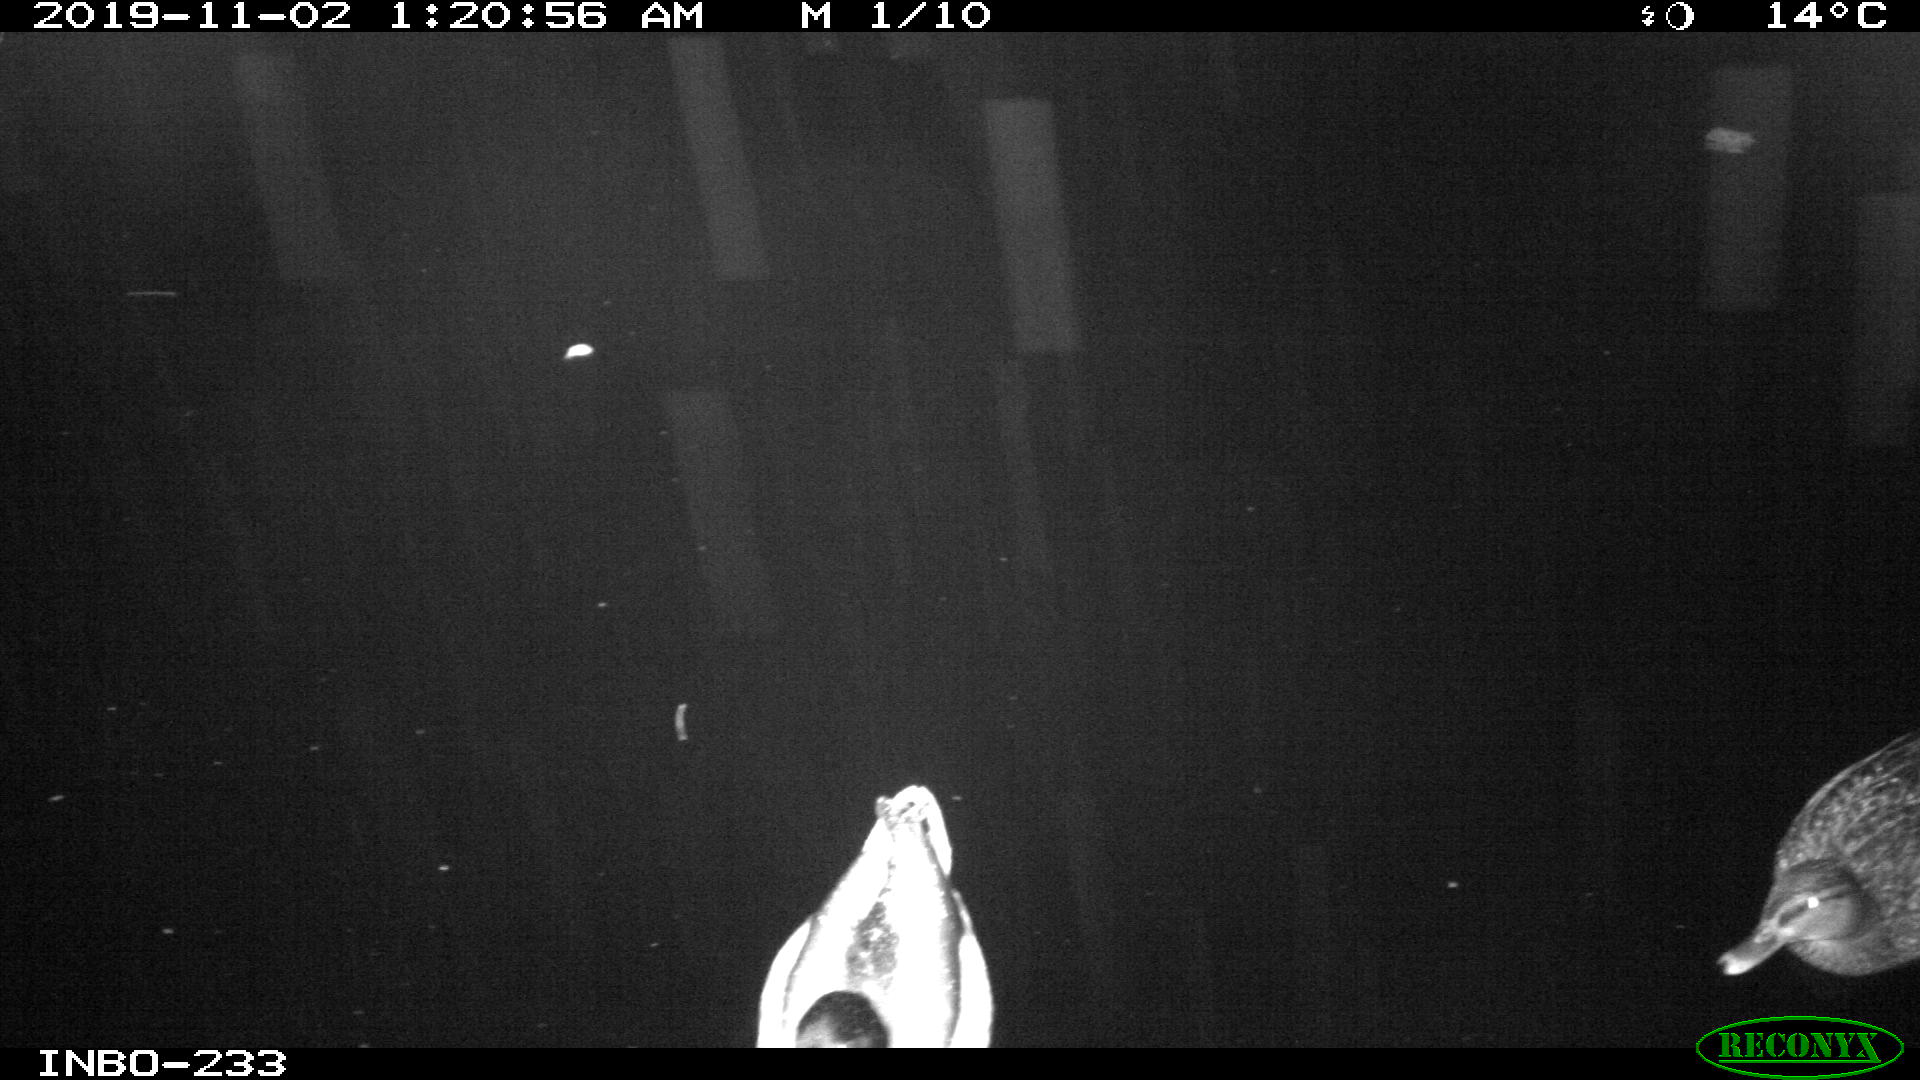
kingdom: Animalia
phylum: Chordata
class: Aves
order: Anseriformes
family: Anatidae
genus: Anas
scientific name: Anas platyrhynchos
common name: Mallard
